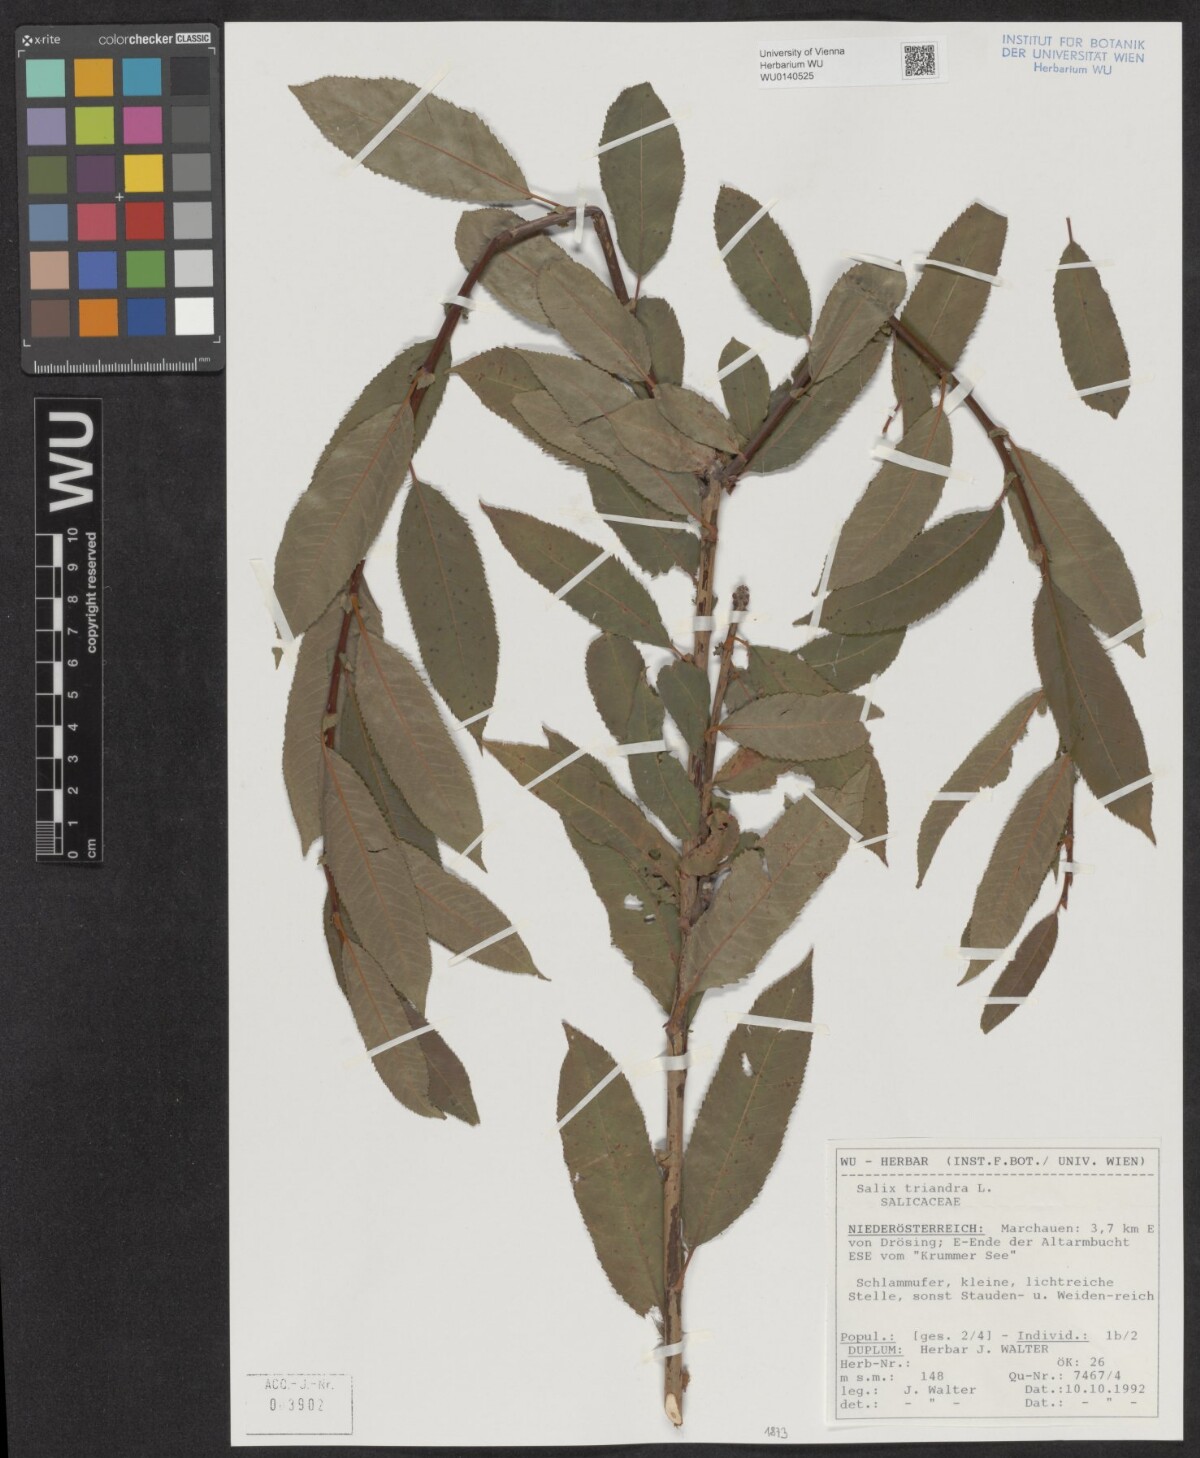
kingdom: Plantae
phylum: Tracheophyta
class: Magnoliopsida
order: Malpighiales
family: Salicaceae
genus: Salix
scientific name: Salix triandra
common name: Almond willow
